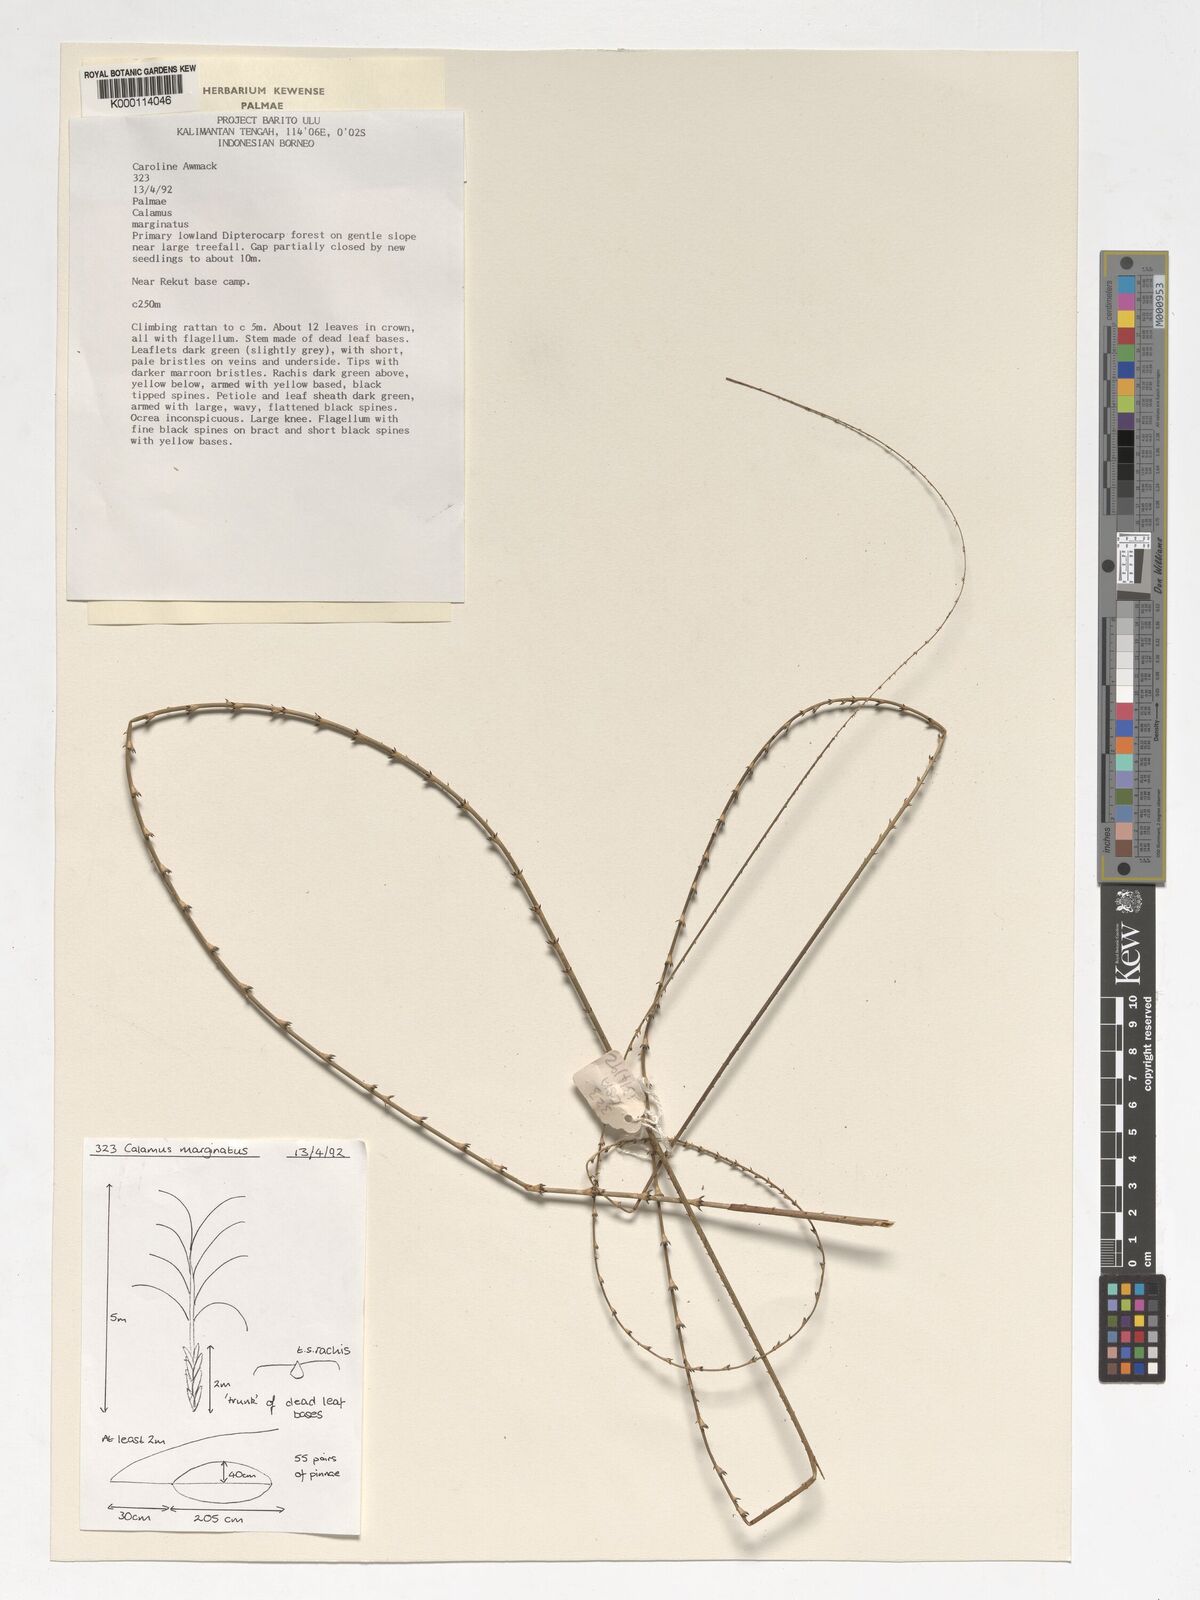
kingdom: Plantae
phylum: Tracheophyta
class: Liliopsida
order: Arecales
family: Arecaceae
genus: Calamus
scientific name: Calamus
